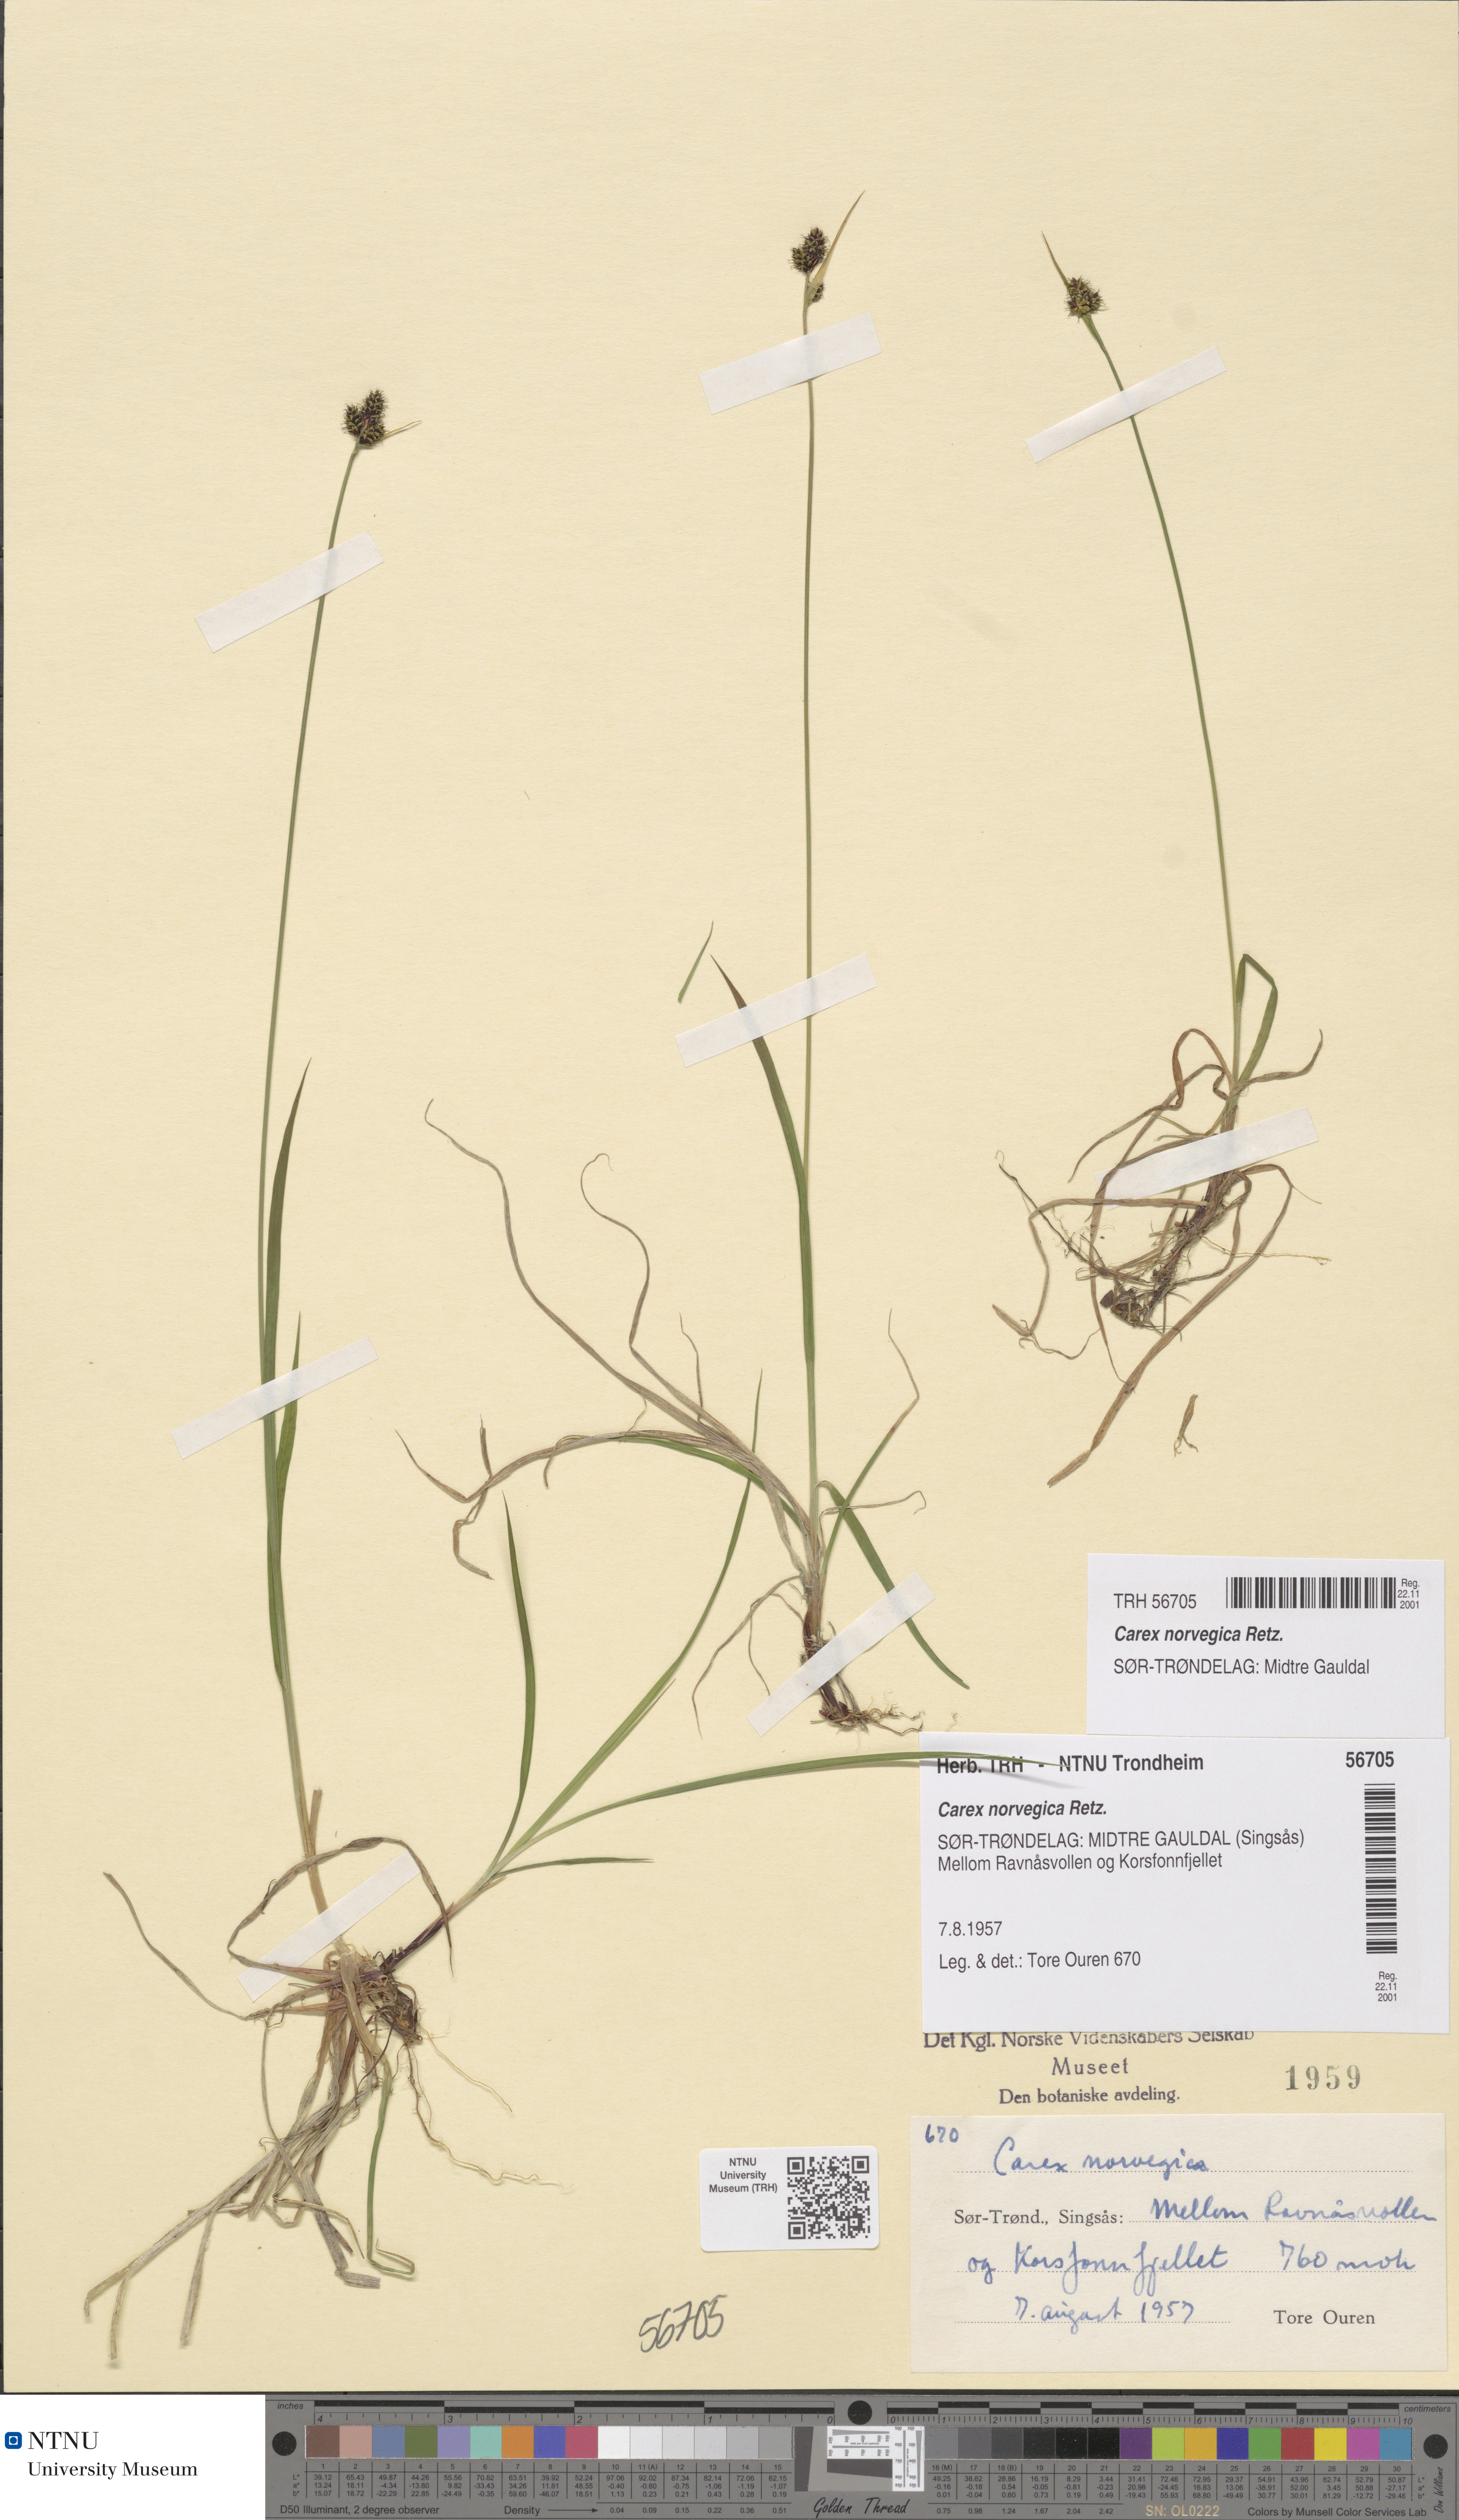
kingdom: Plantae
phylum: Tracheophyta
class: Liliopsida
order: Poales
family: Cyperaceae
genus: Carex
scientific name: Carex norvegica
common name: Close-headed alpine-sedge
